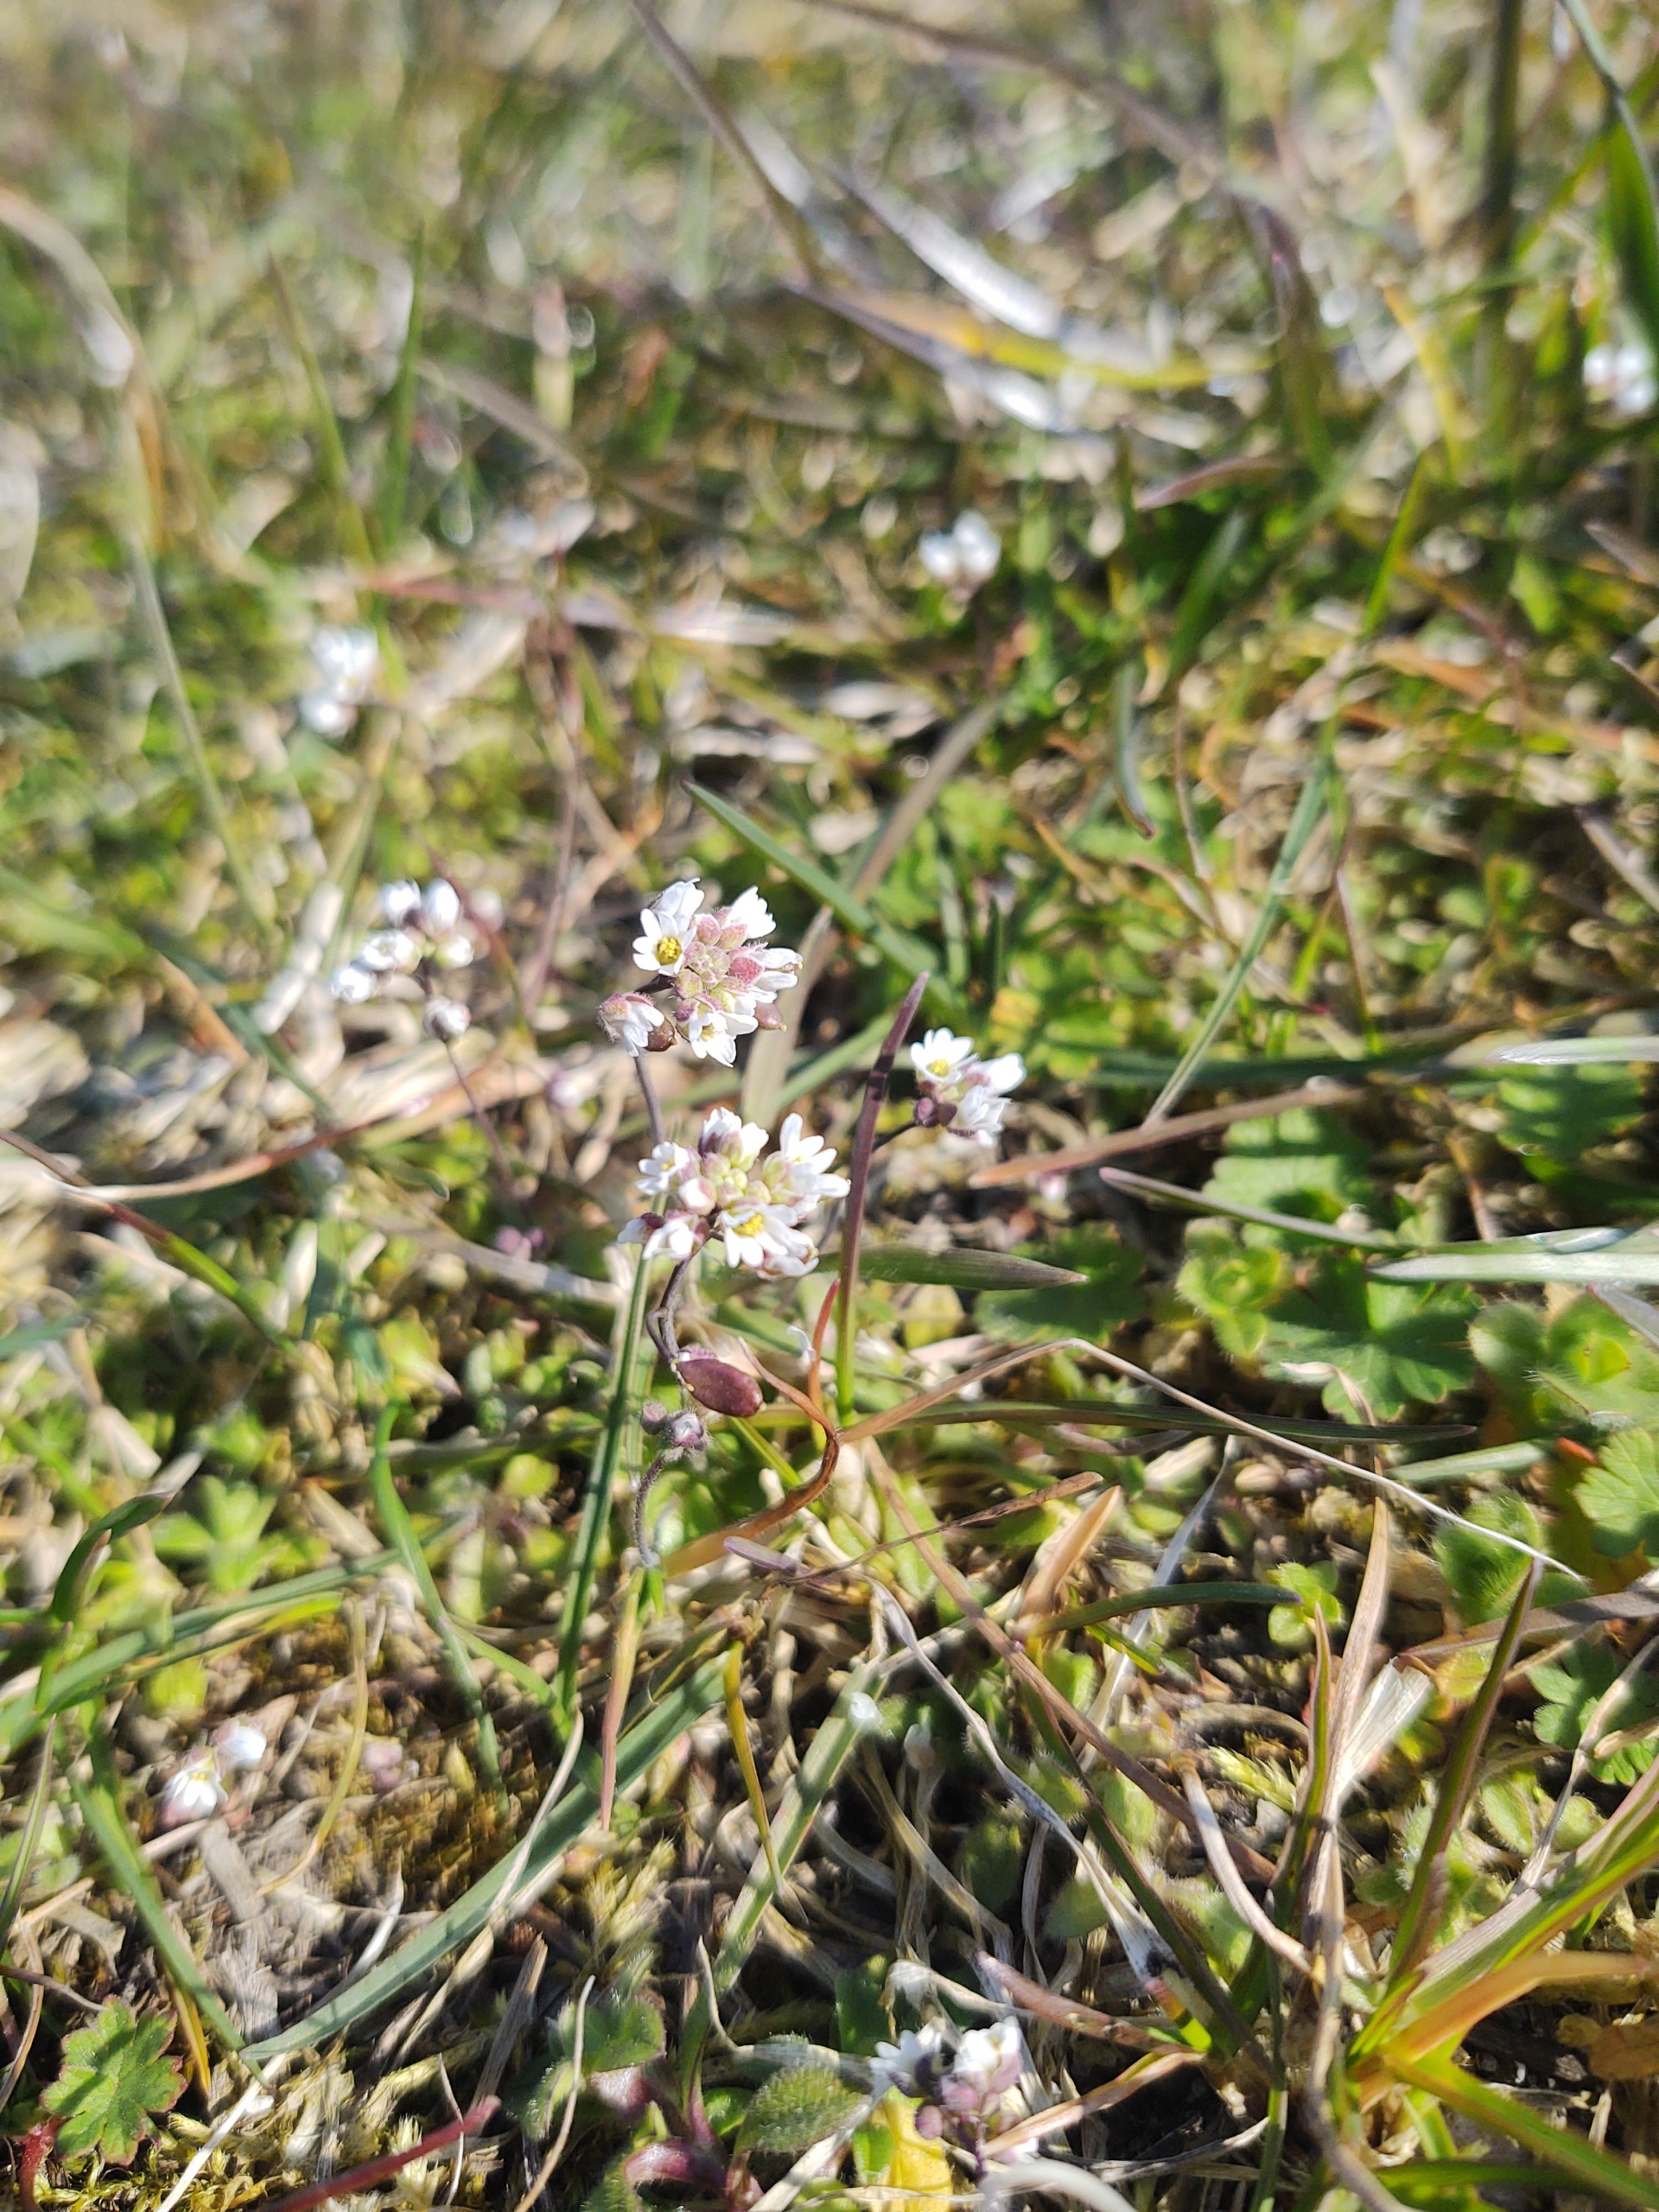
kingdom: Plantae
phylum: Tracheophyta
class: Magnoliopsida
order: Brassicales
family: Brassicaceae
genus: Draba
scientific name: Draba verna
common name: Vår-gæslingeblomst
